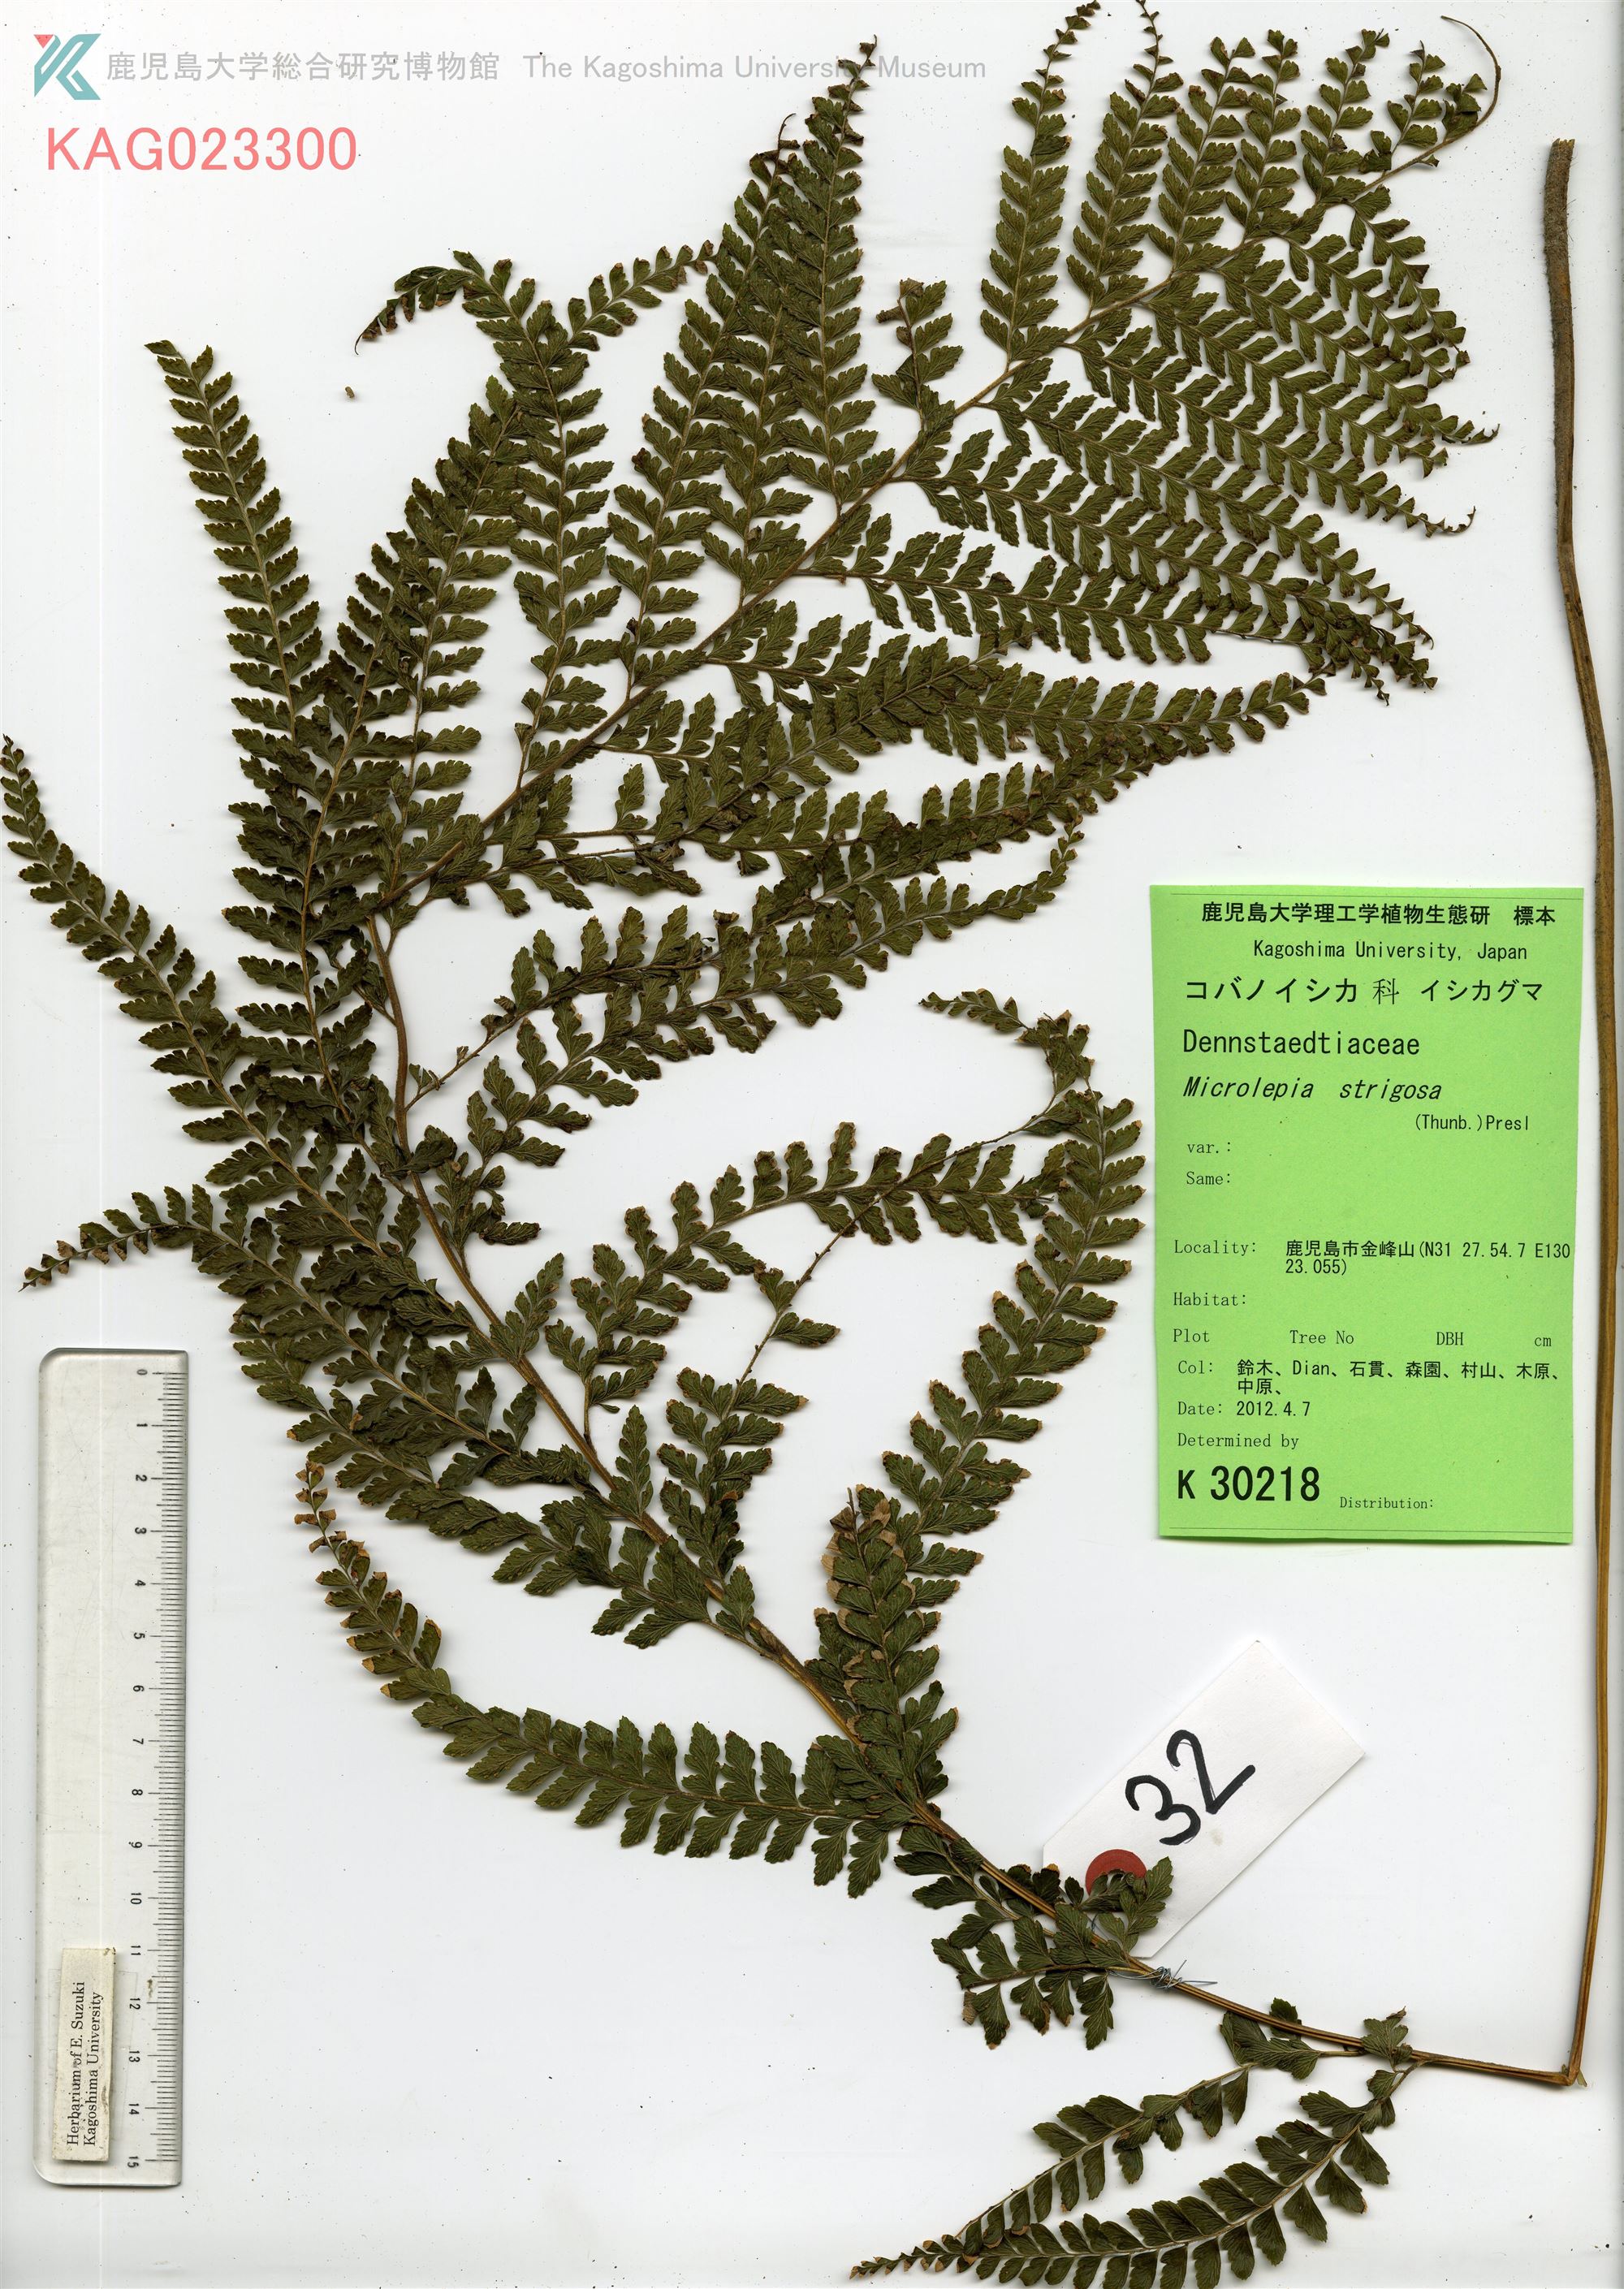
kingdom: Plantae
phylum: Tracheophyta
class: Polypodiopsida
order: Polypodiales
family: Dennstaedtiaceae
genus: Microlepia
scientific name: Microlepia strigosa
